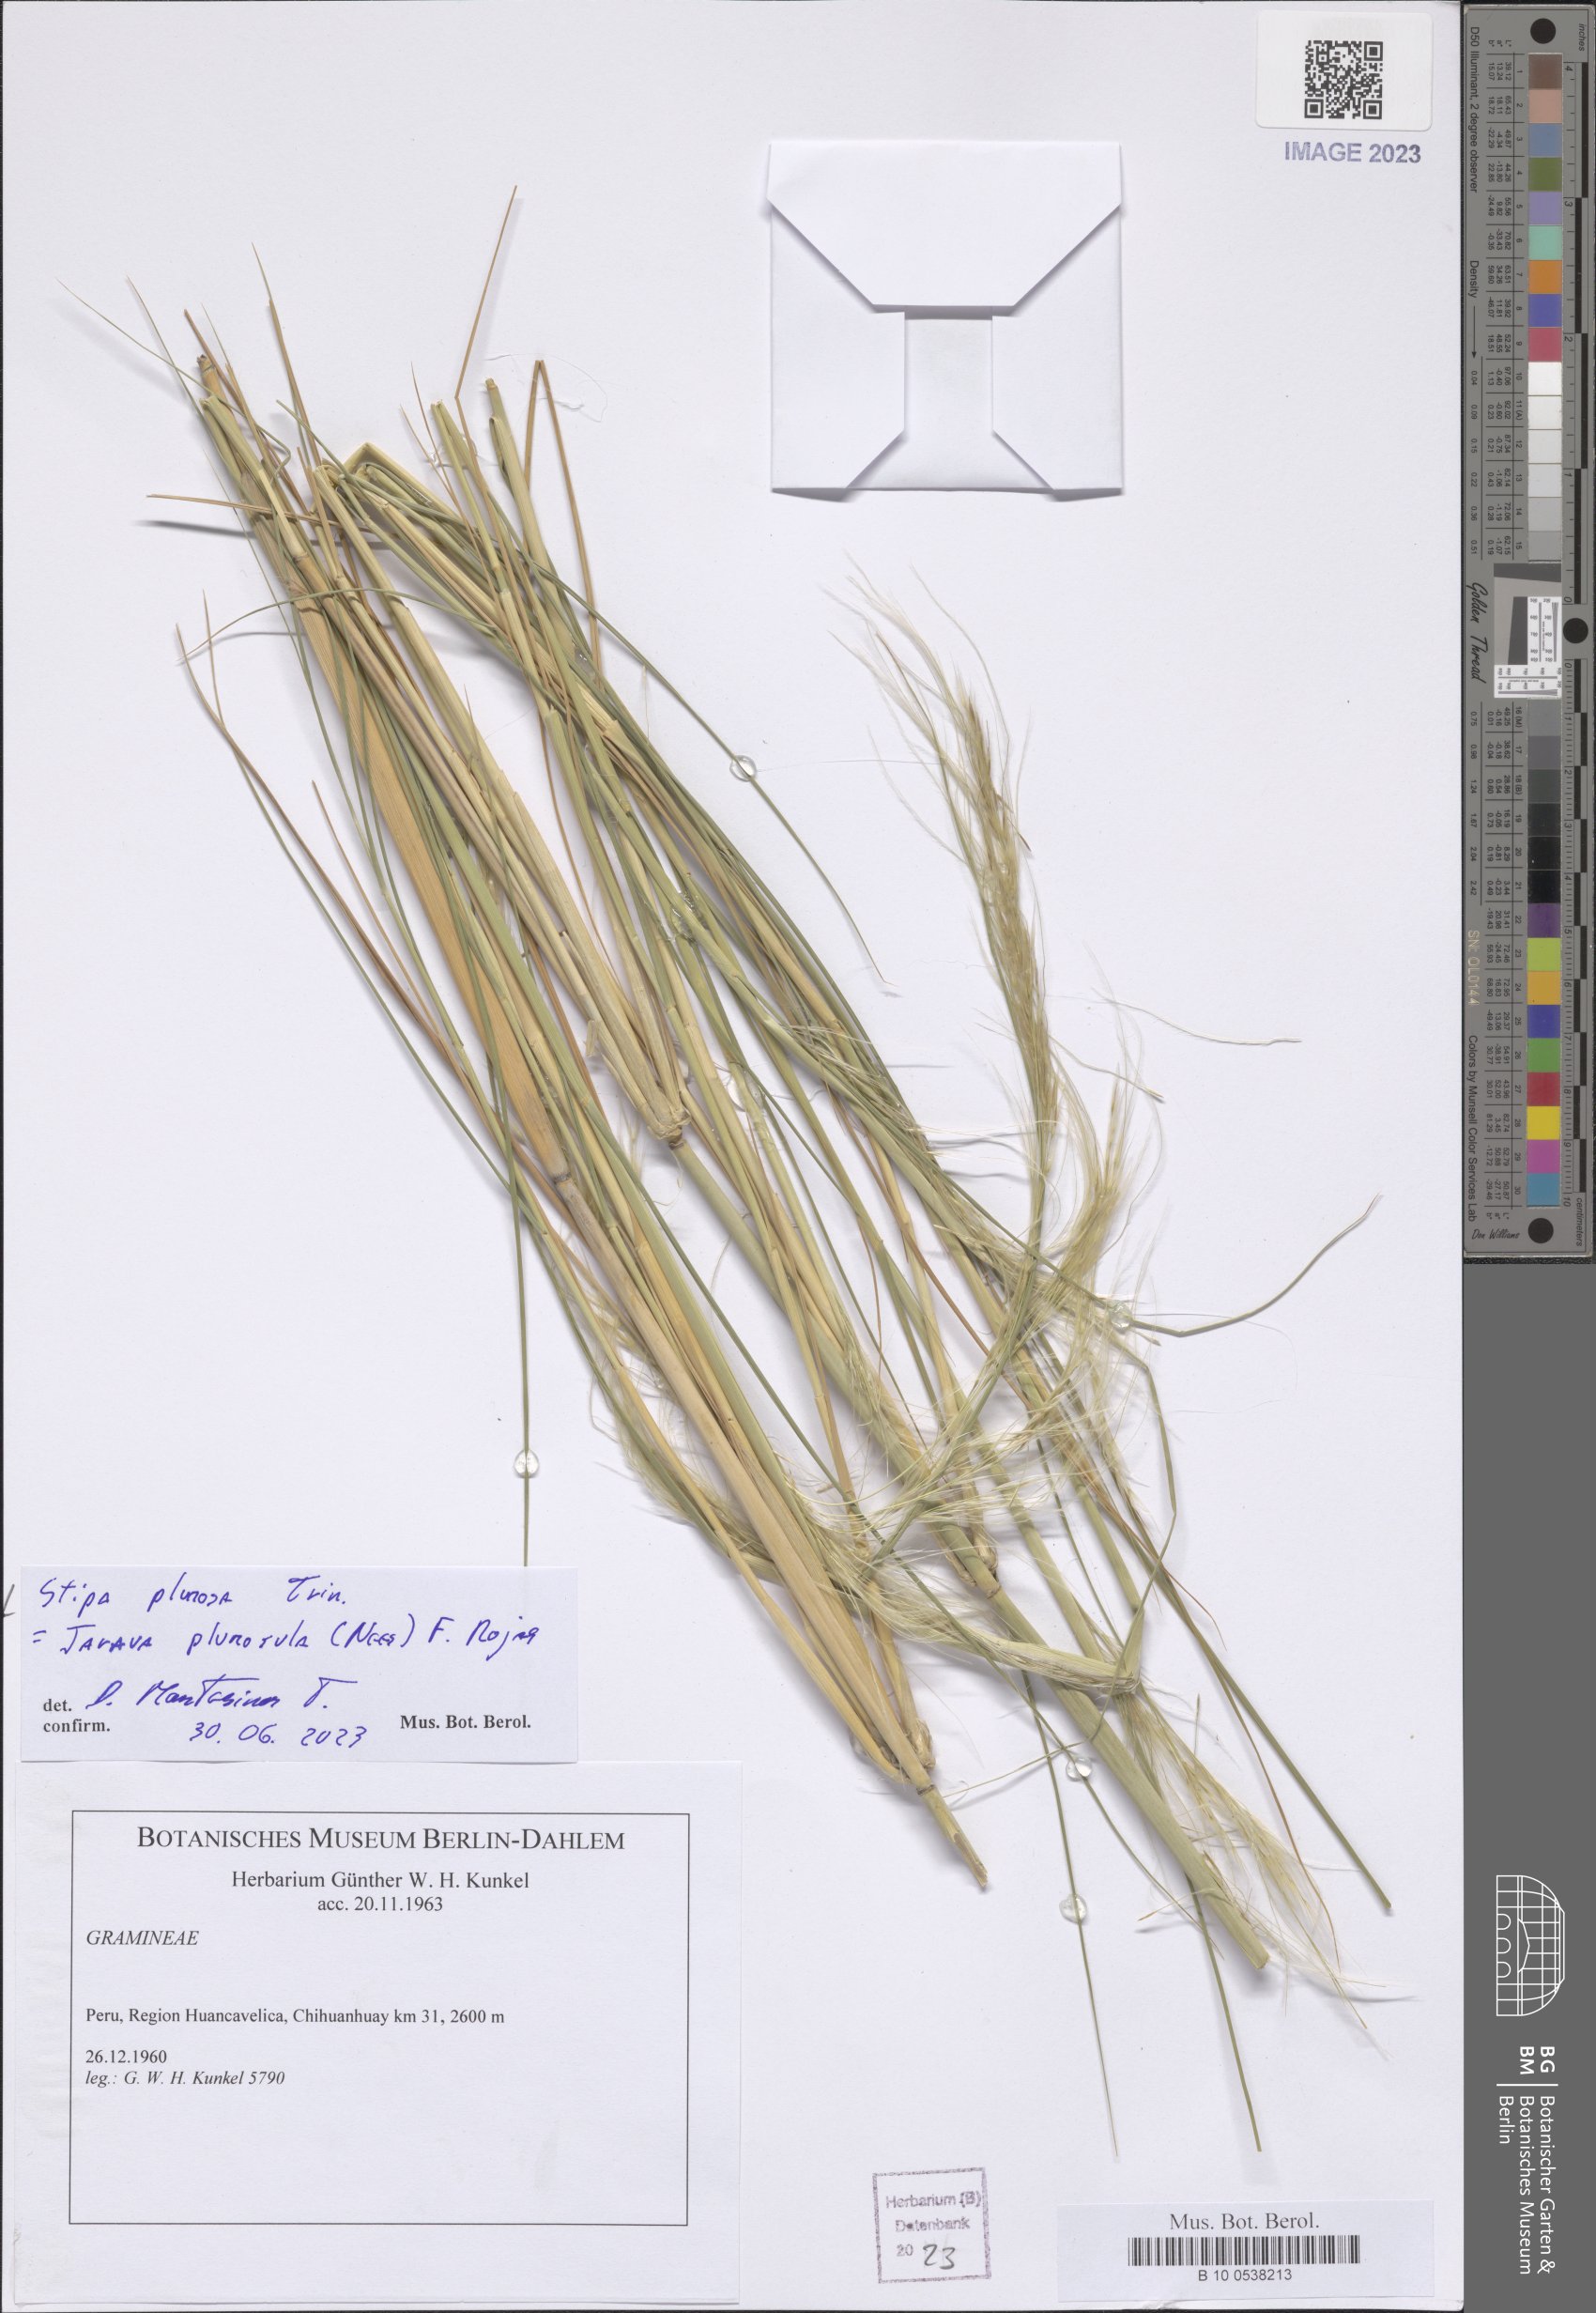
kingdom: Plantae
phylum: Tracheophyta
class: Liliopsida
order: Poales
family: Poaceae
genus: Stipa
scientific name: Stipa plumosa
